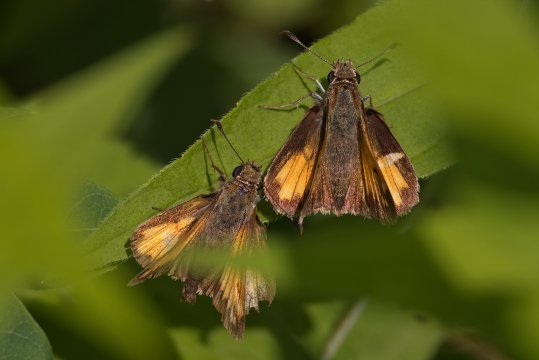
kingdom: Animalia
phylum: Arthropoda
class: Insecta
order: Lepidoptera
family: Hesperiidae
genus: Lon
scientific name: Lon hobomok
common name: Hobomok Skipper
